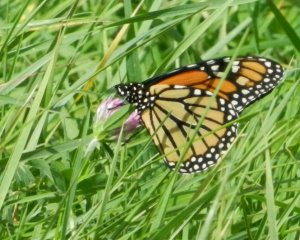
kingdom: Animalia
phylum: Arthropoda
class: Insecta
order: Lepidoptera
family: Nymphalidae
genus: Danaus
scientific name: Danaus plexippus
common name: Monarch
